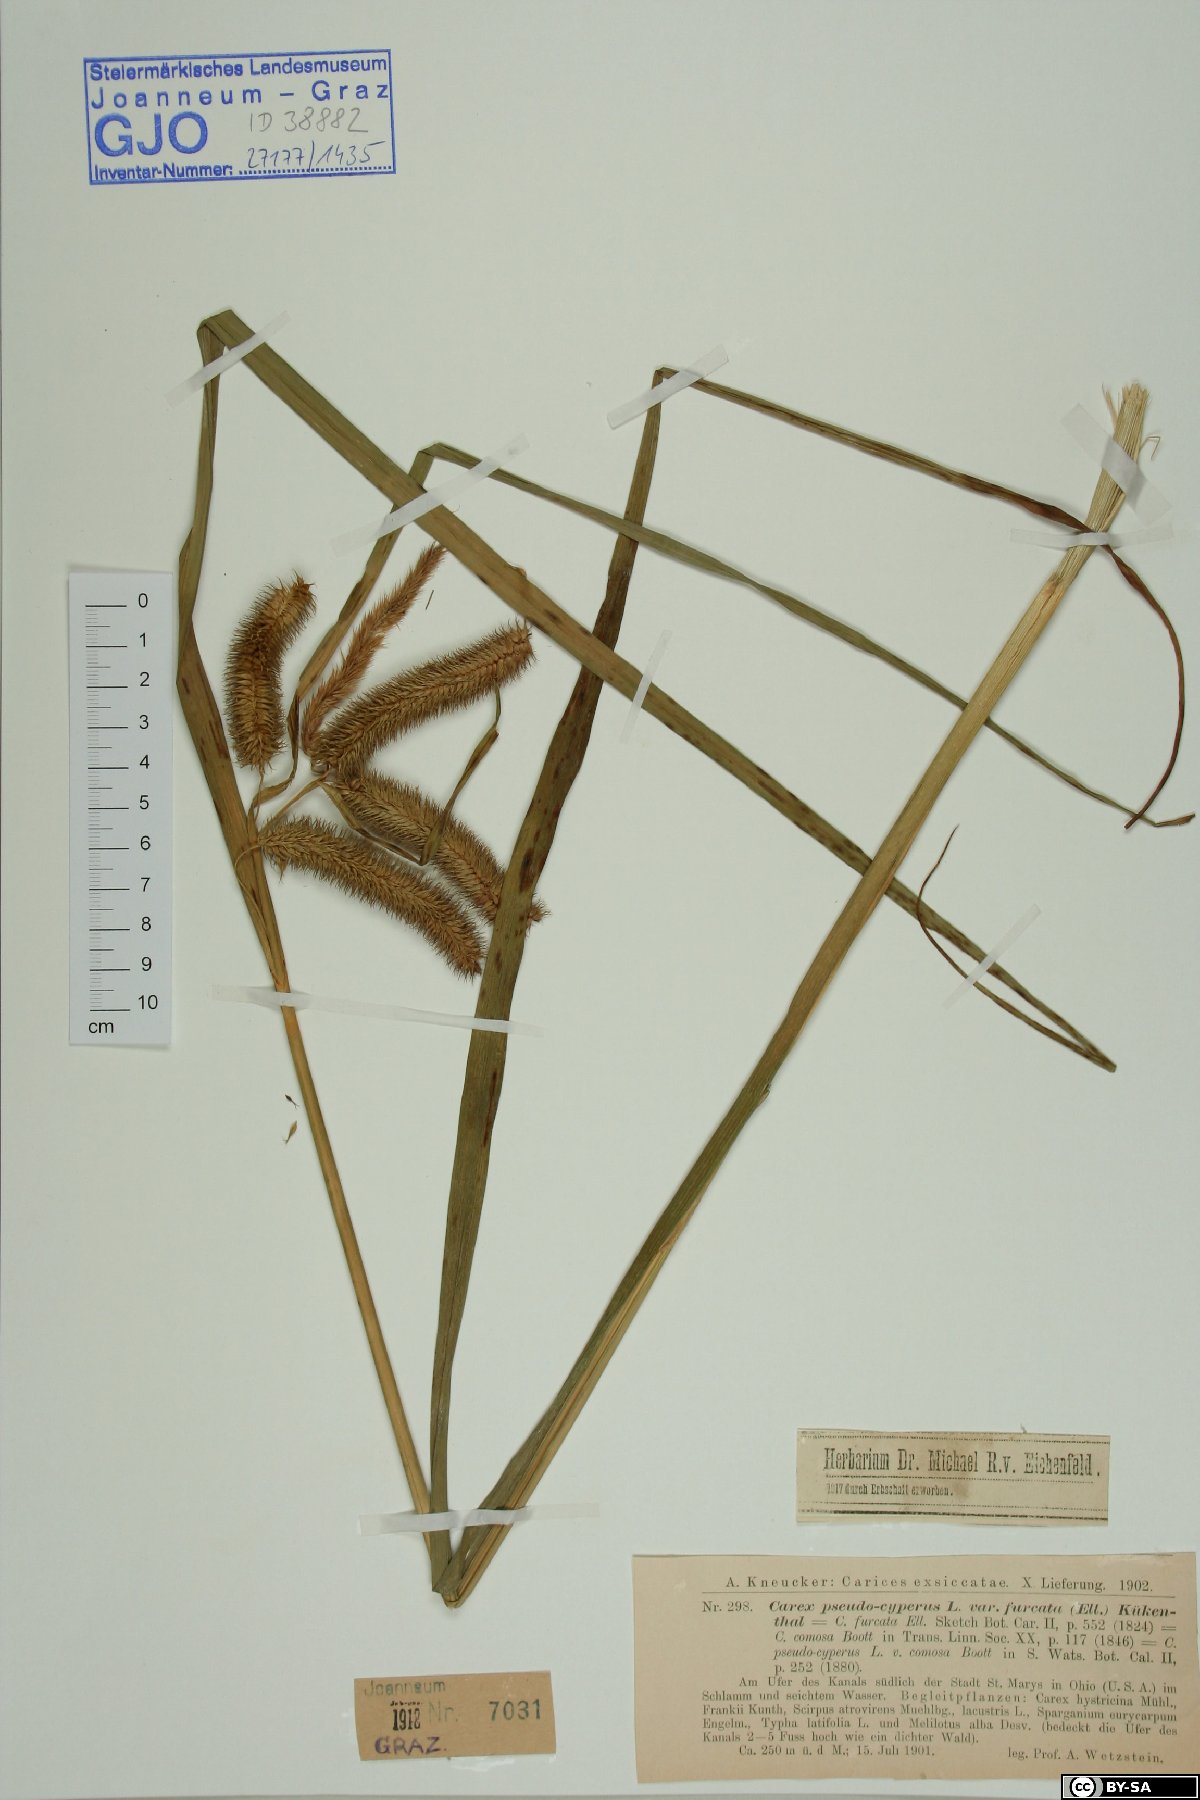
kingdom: Plantae
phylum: Tracheophyta
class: Liliopsida
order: Poales
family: Cyperaceae
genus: Carex
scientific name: Carex pseudocyperus
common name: Cyperus sedge
